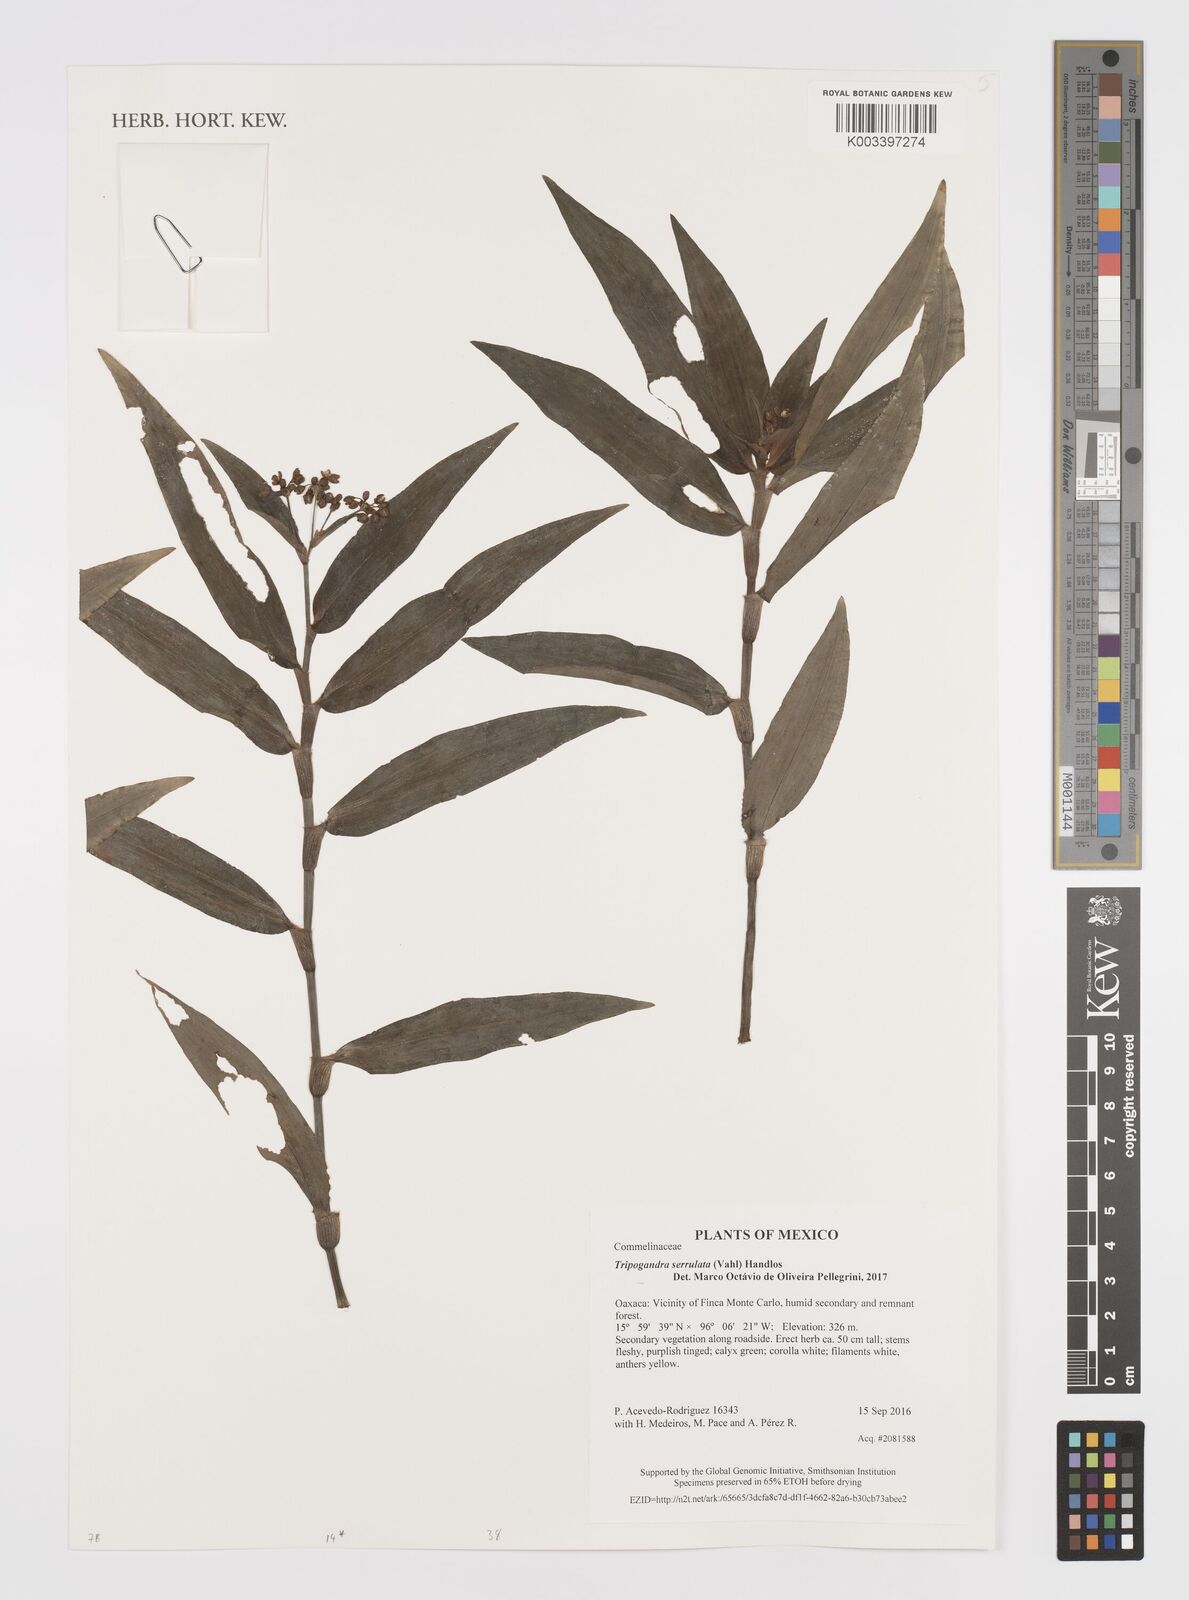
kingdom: Plantae
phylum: Tracheophyta
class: Liliopsida
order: Commelinales
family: Commelinaceae
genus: Callisia
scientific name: Callisia serrulata
